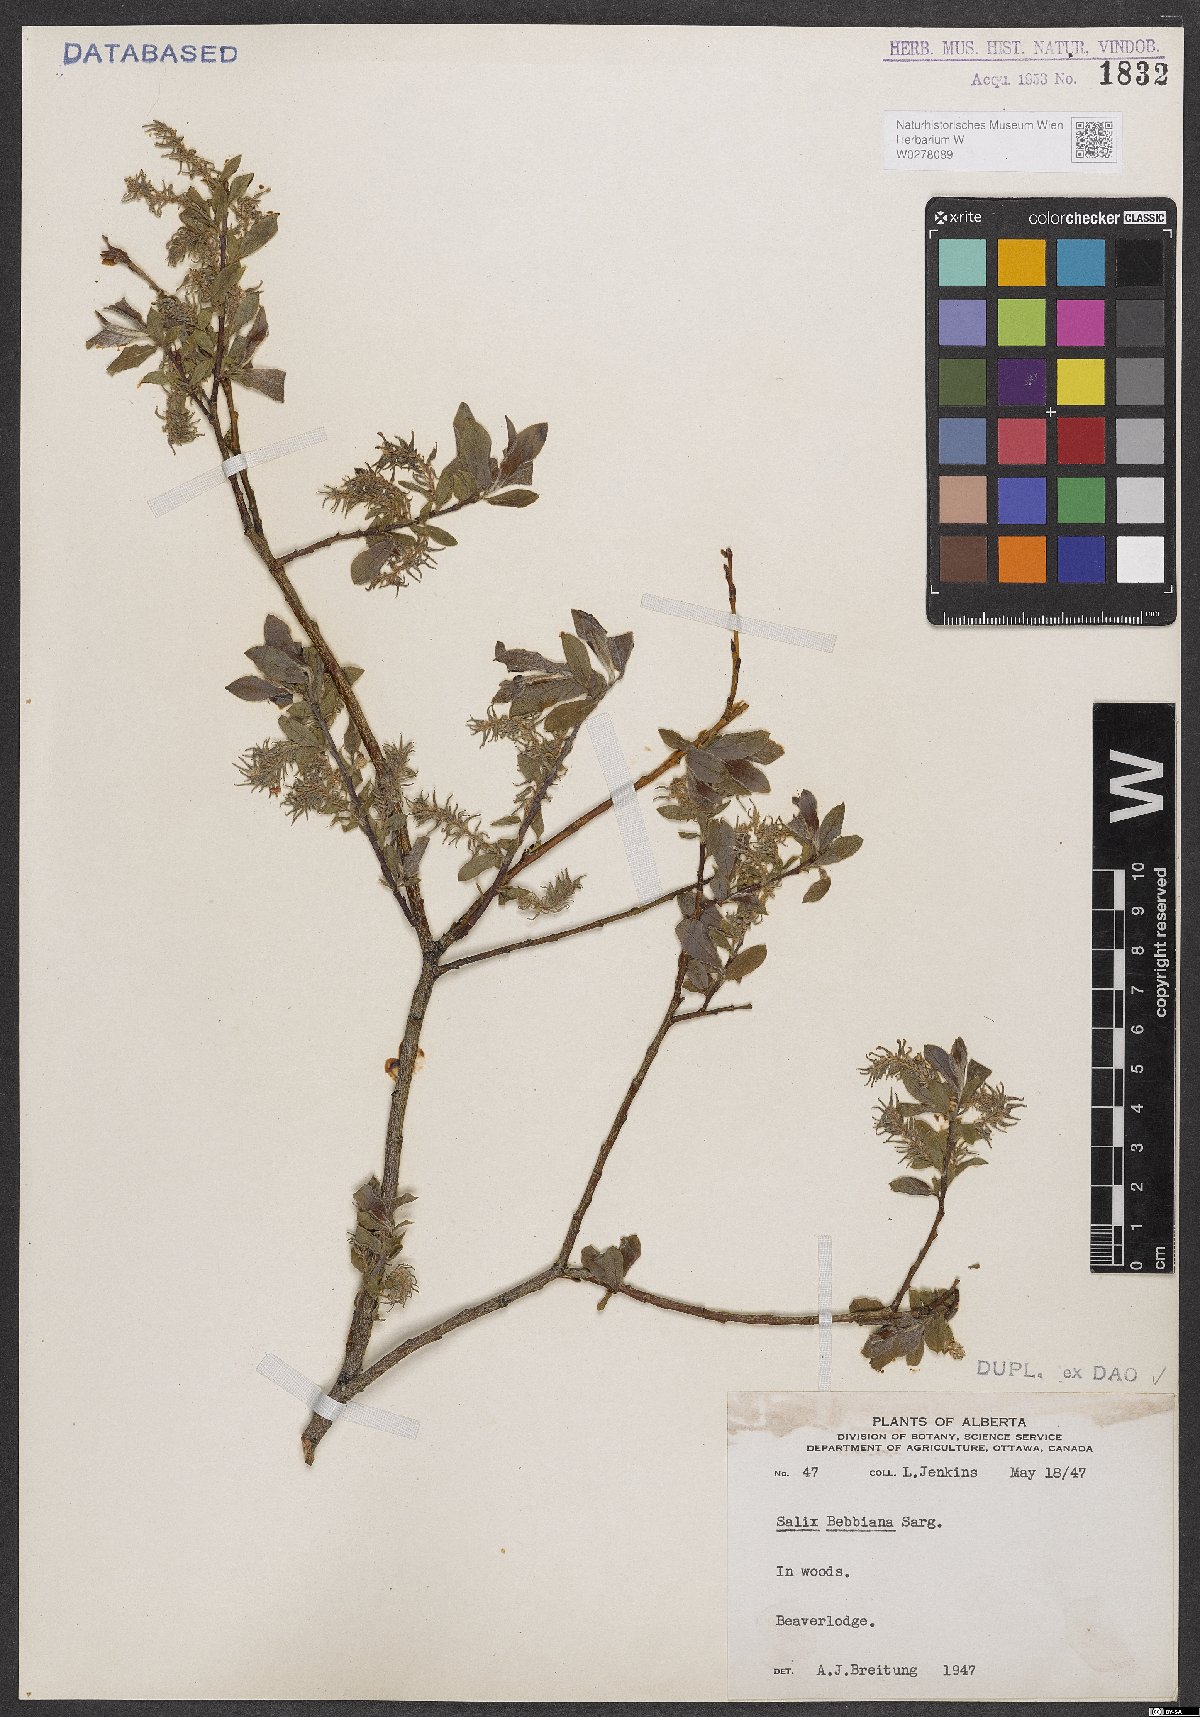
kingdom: Plantae
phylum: Tracheophyta
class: Magnoliopsida
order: Malpighiales
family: Salicaceae
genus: Salix
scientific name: Salix bebbiana
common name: Bebb's willow
